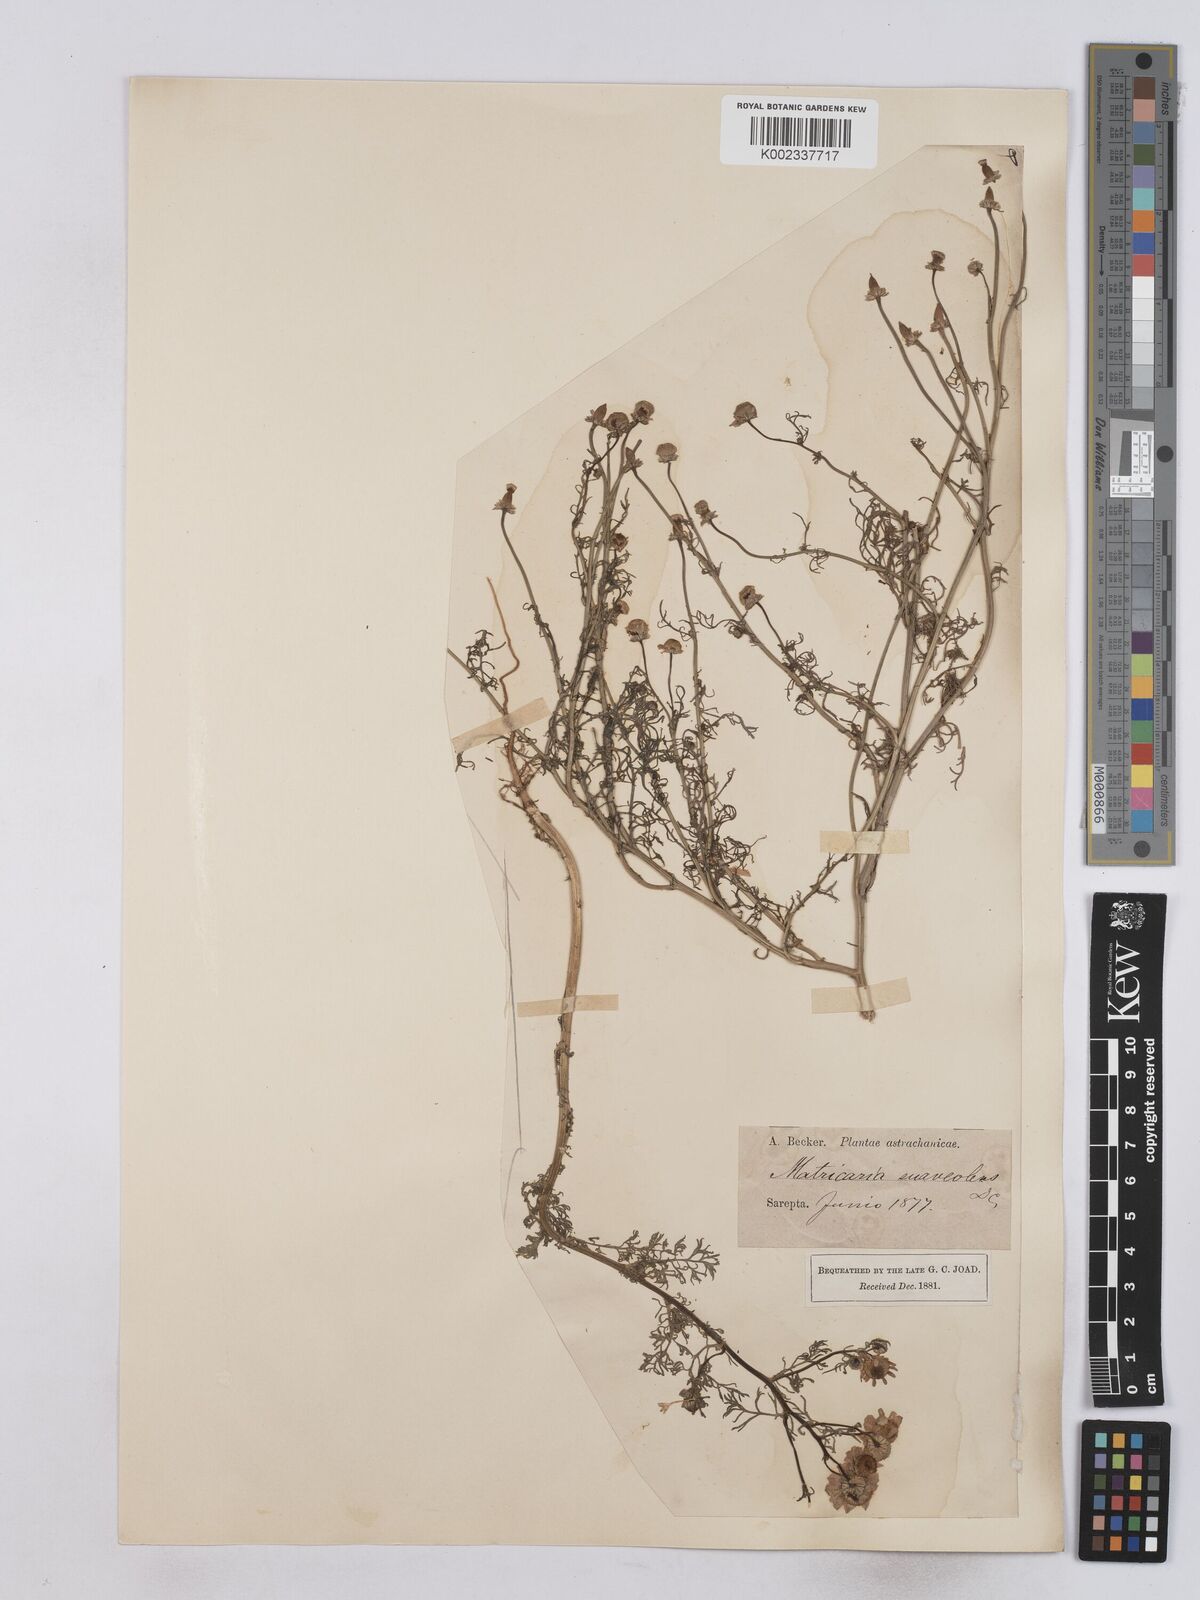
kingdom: Plantae
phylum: Tracheophyta
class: Magnoliopsida
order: Asterales
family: Asteraceae
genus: Matricaria
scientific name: Matricaria chamomilla
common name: Scented mayweed
